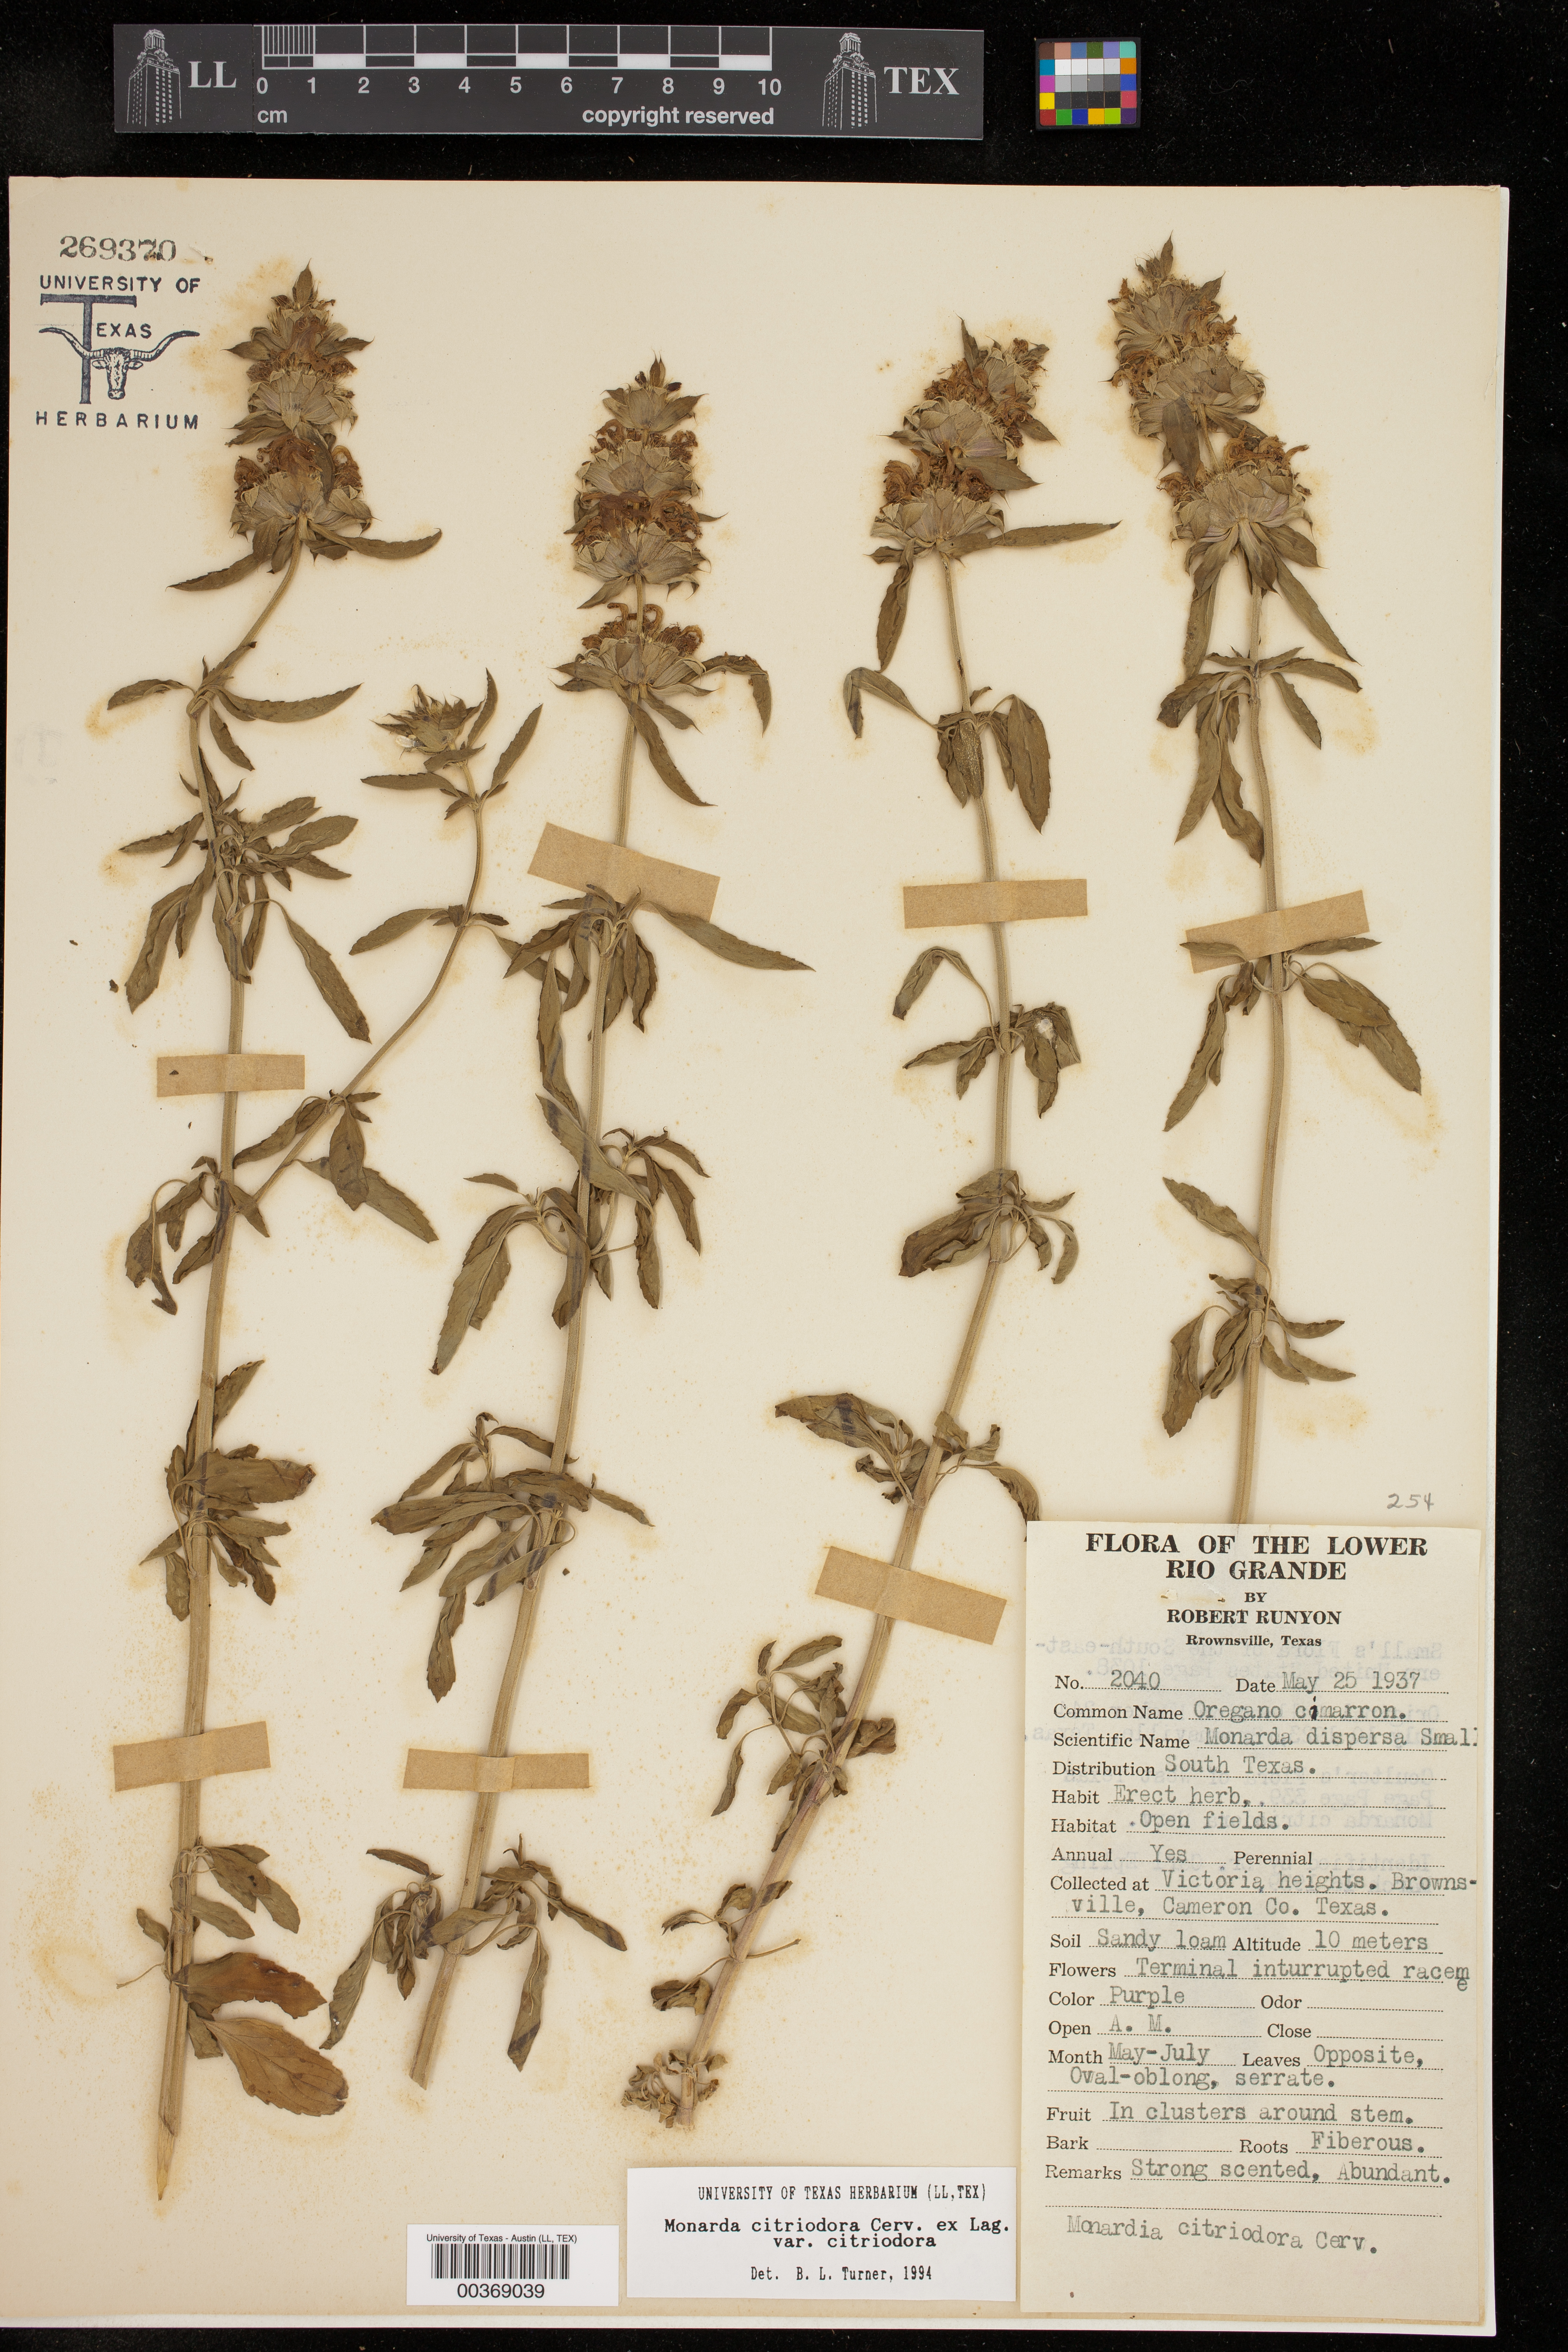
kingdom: Plantae
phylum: Tracheophyta
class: Magnoliopsida
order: Lamiales
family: Lamiaceae
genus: Monarda
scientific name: Monarda citriodora
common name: Lemon beebalm
